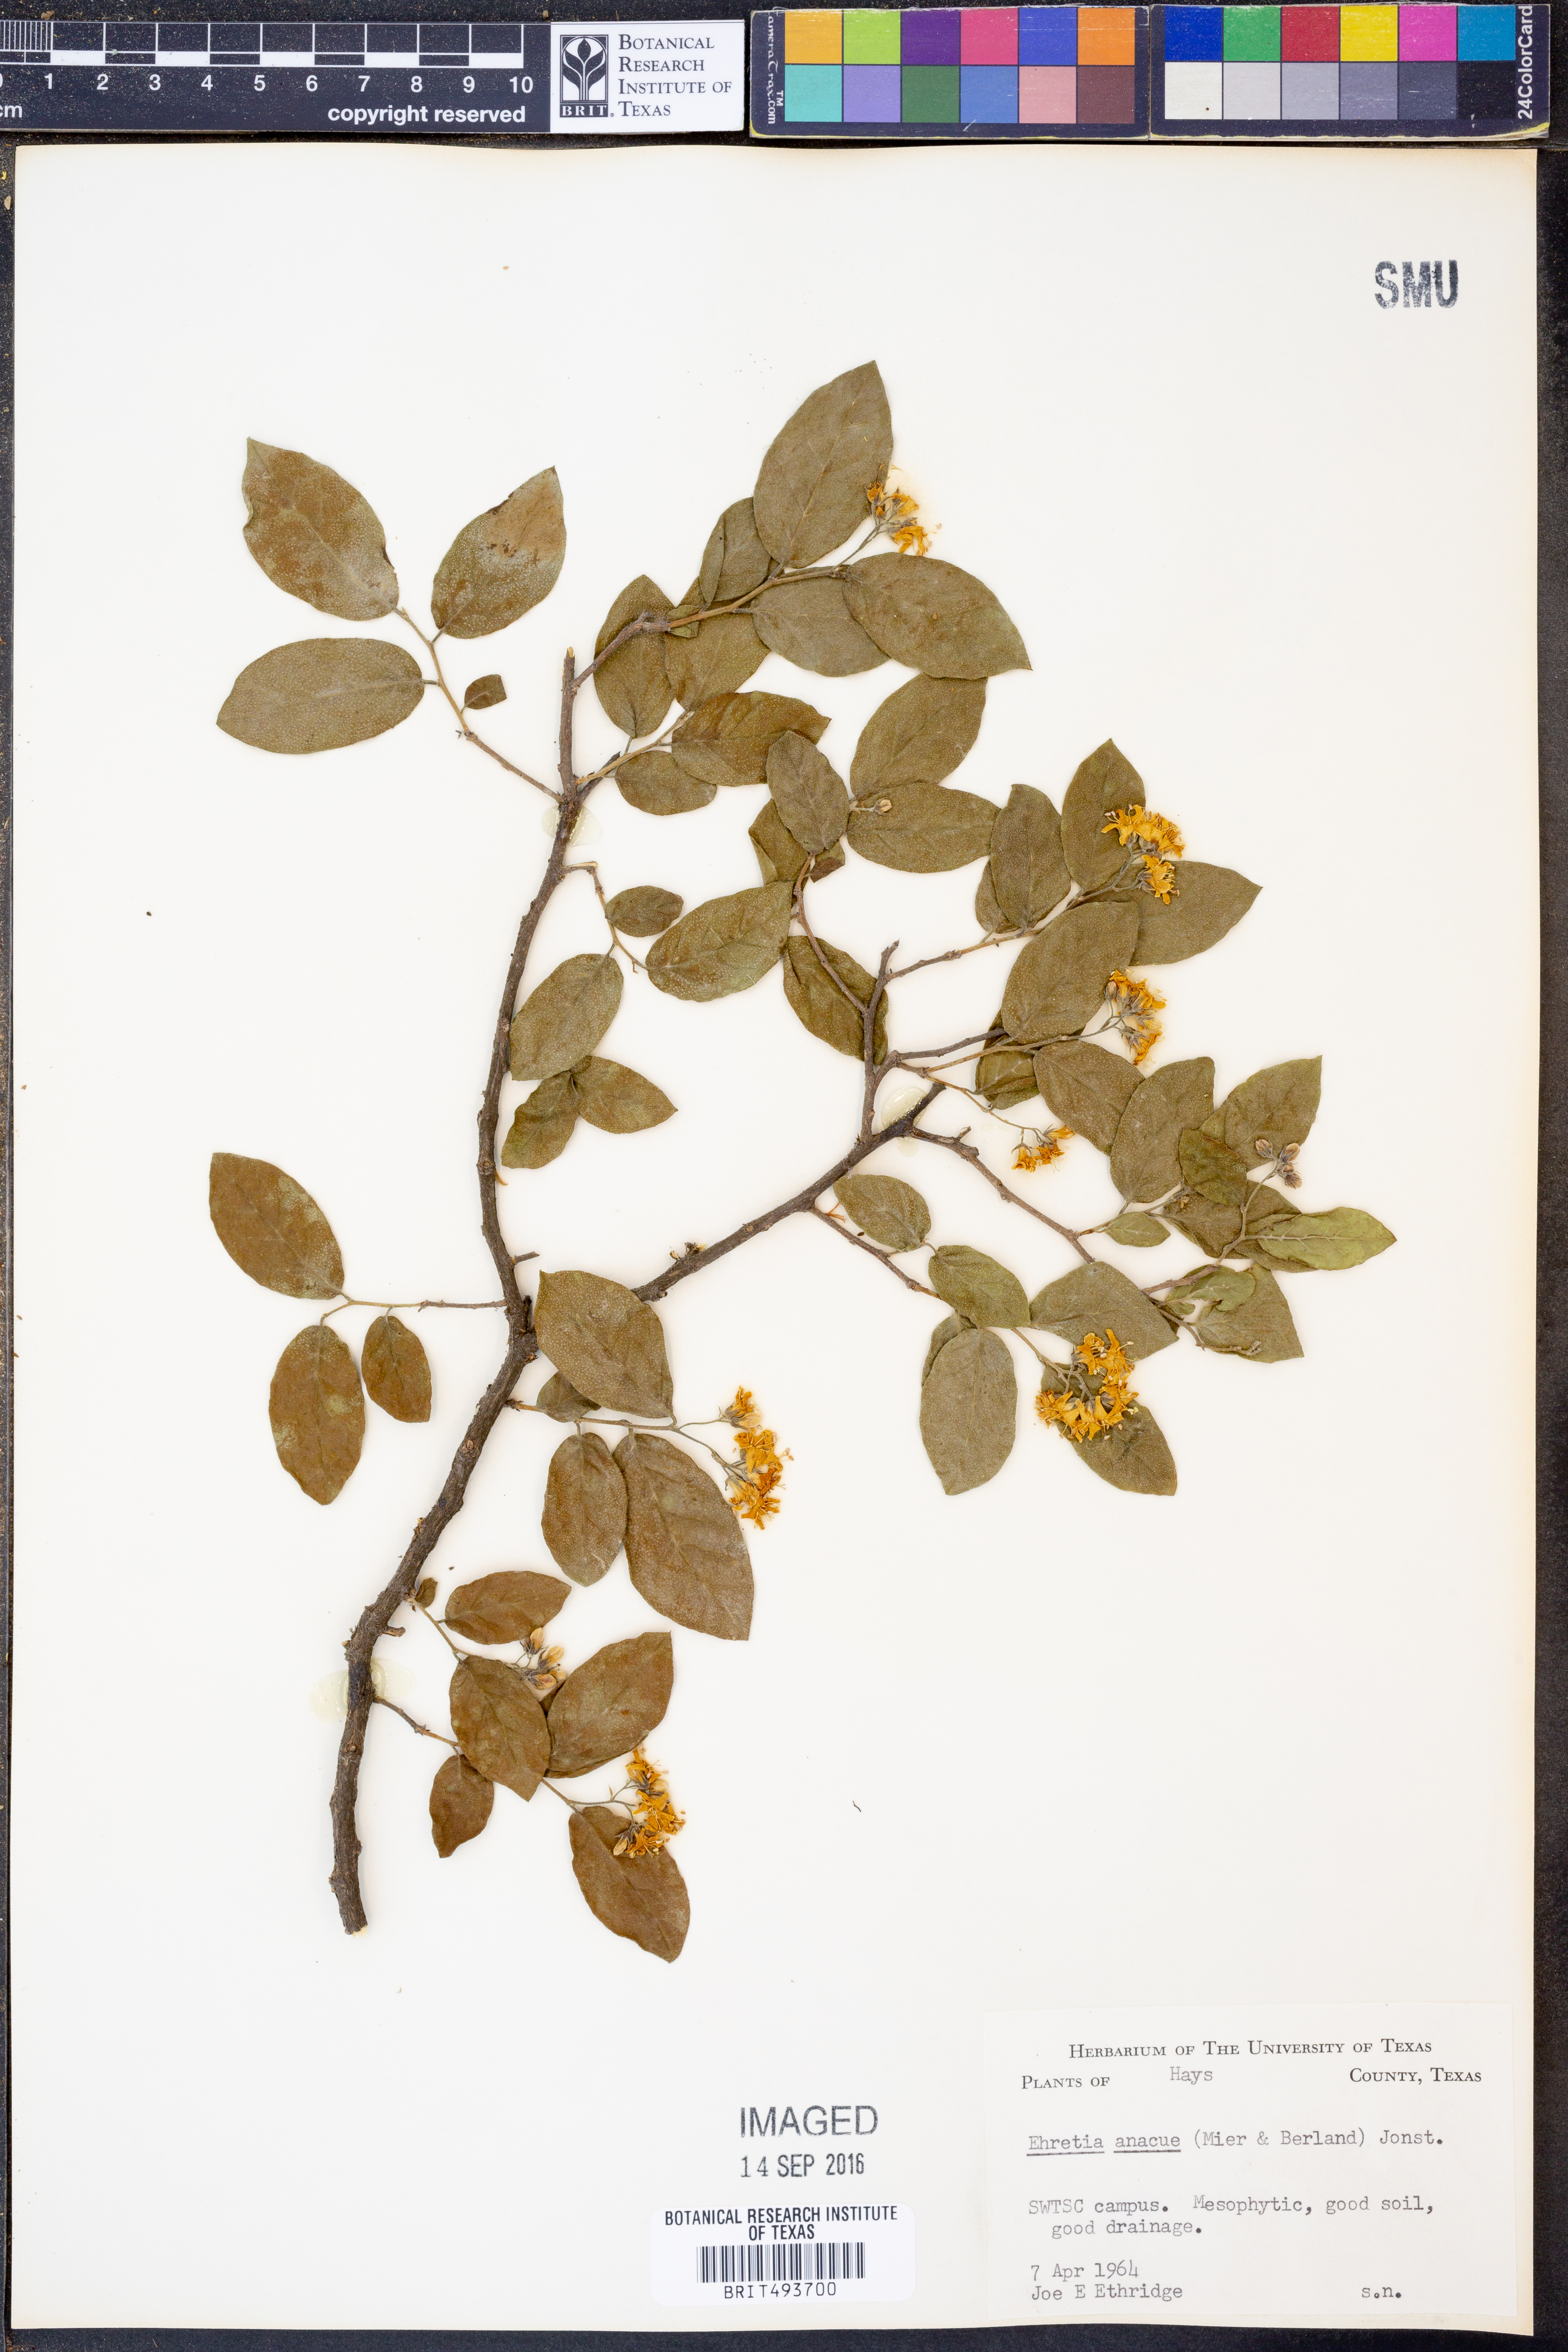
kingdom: Plantae
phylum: Tracheophyta
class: Magnoliopsida
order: Boraginales
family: Ehretiaceae
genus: Ehretia
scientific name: Ehretia anacua
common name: Sugarberry
